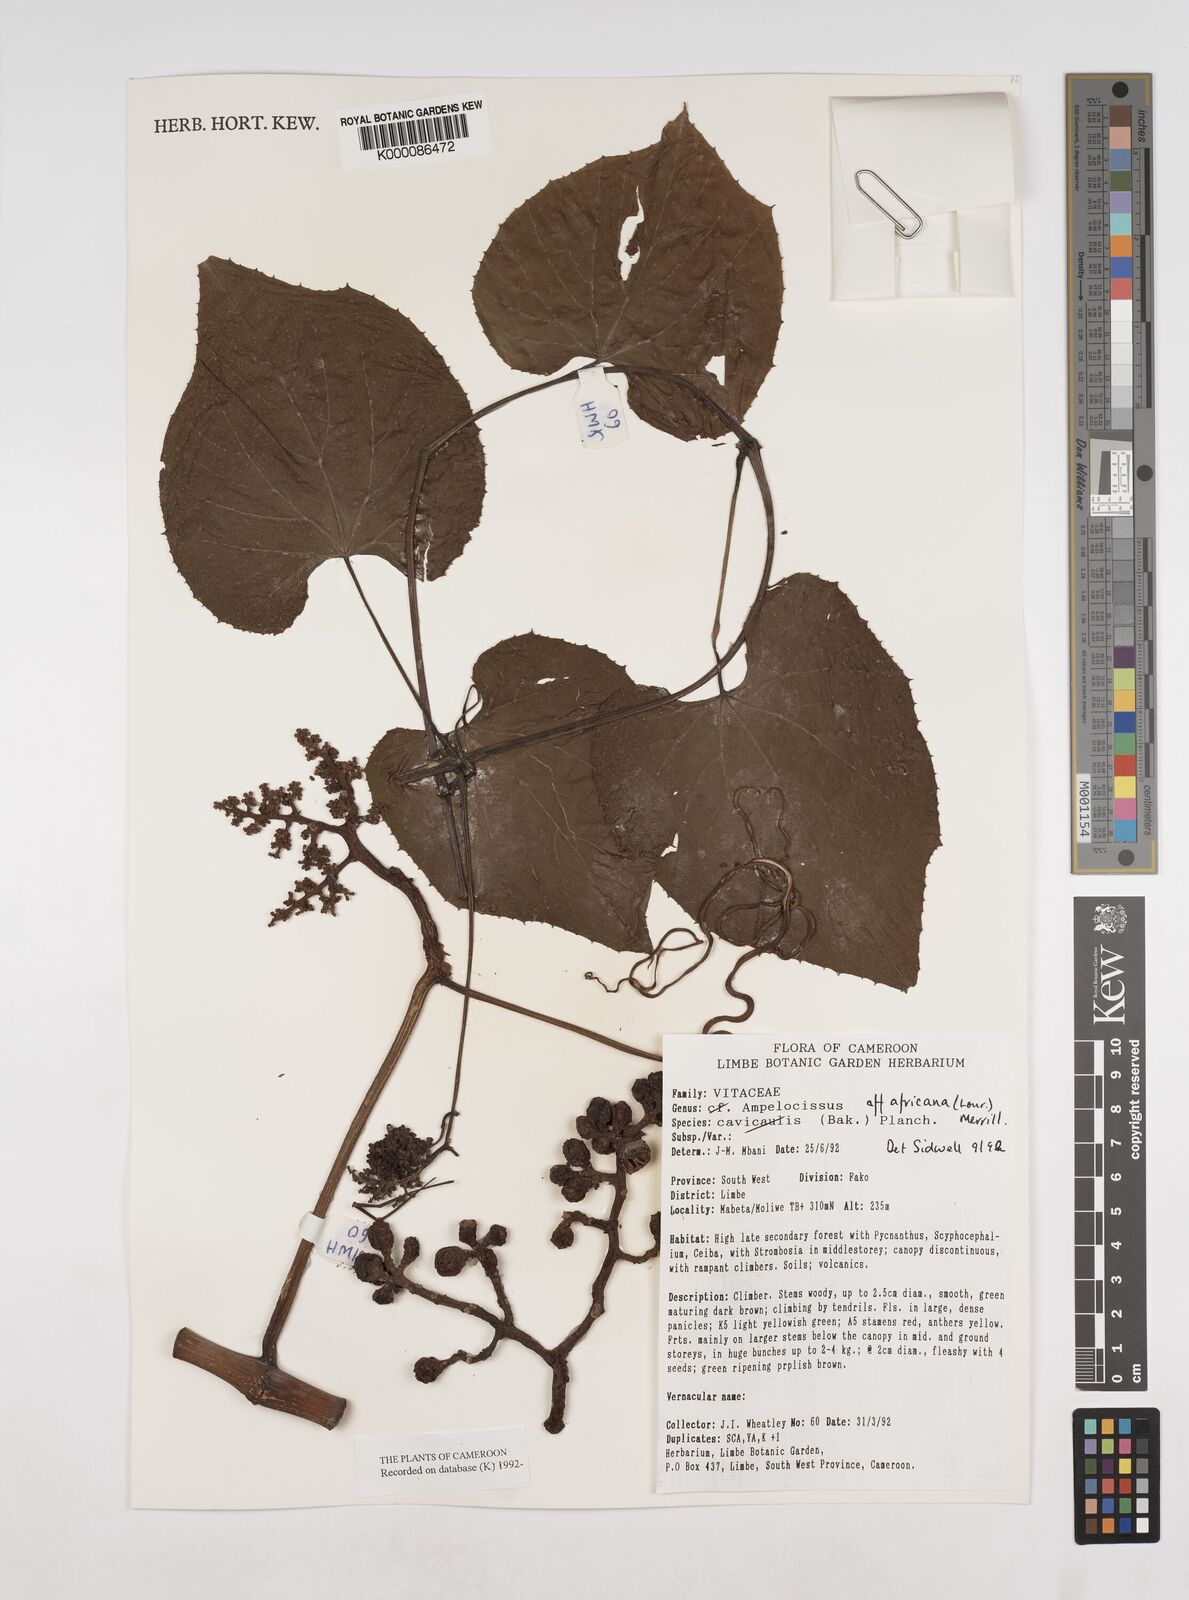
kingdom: Plantae
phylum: Tracheophyta
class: Magnoliopsida
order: Vitales
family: Vitaceae
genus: Ampelocissus
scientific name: Ampelocissus africana
